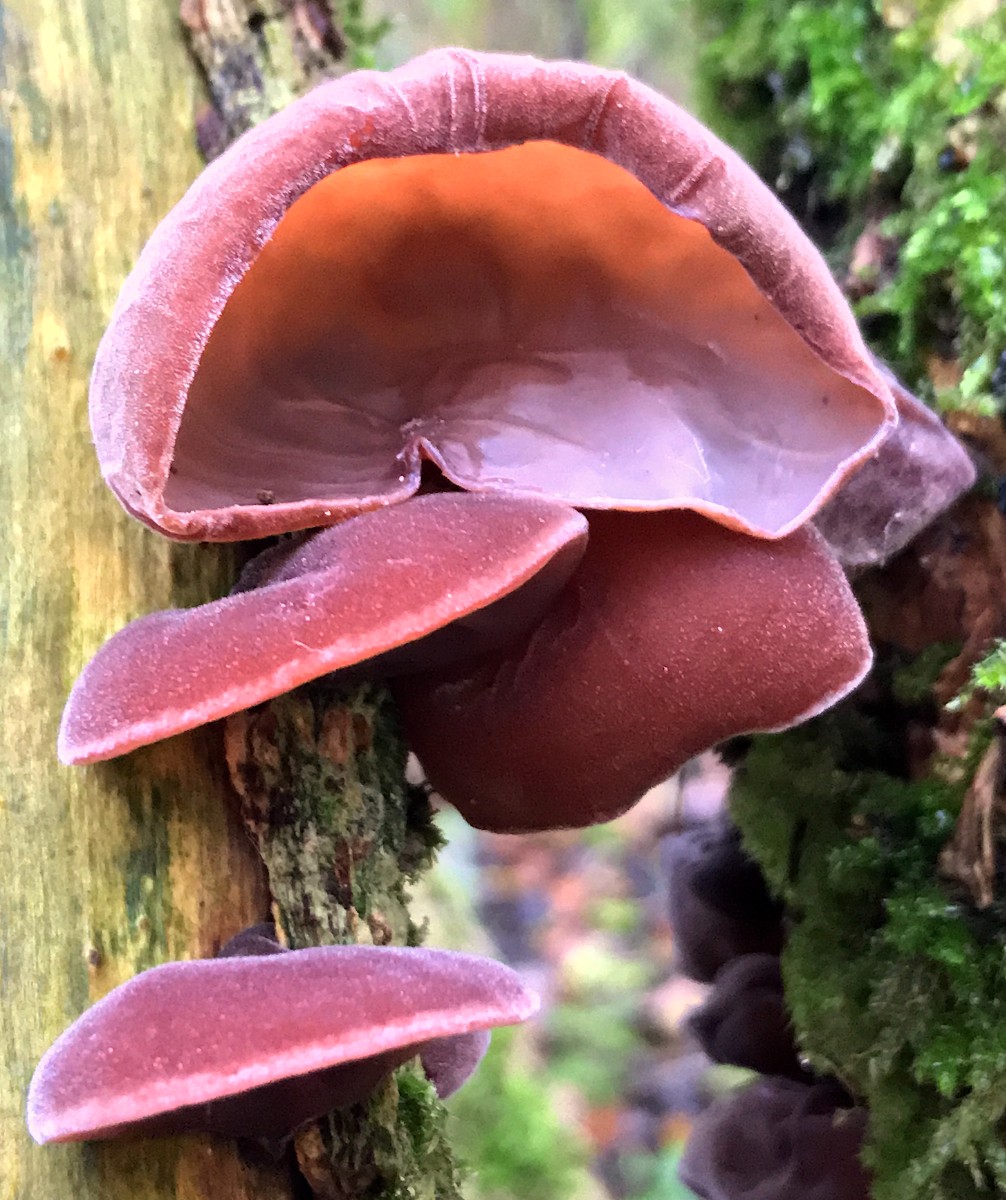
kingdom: Fungi
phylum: Basidiomycota
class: Agaricomycetes
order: Auriculariales
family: Auriculariaceae
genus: Auricularia
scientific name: Auricularia auricula-judae
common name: almindelig judasøre
